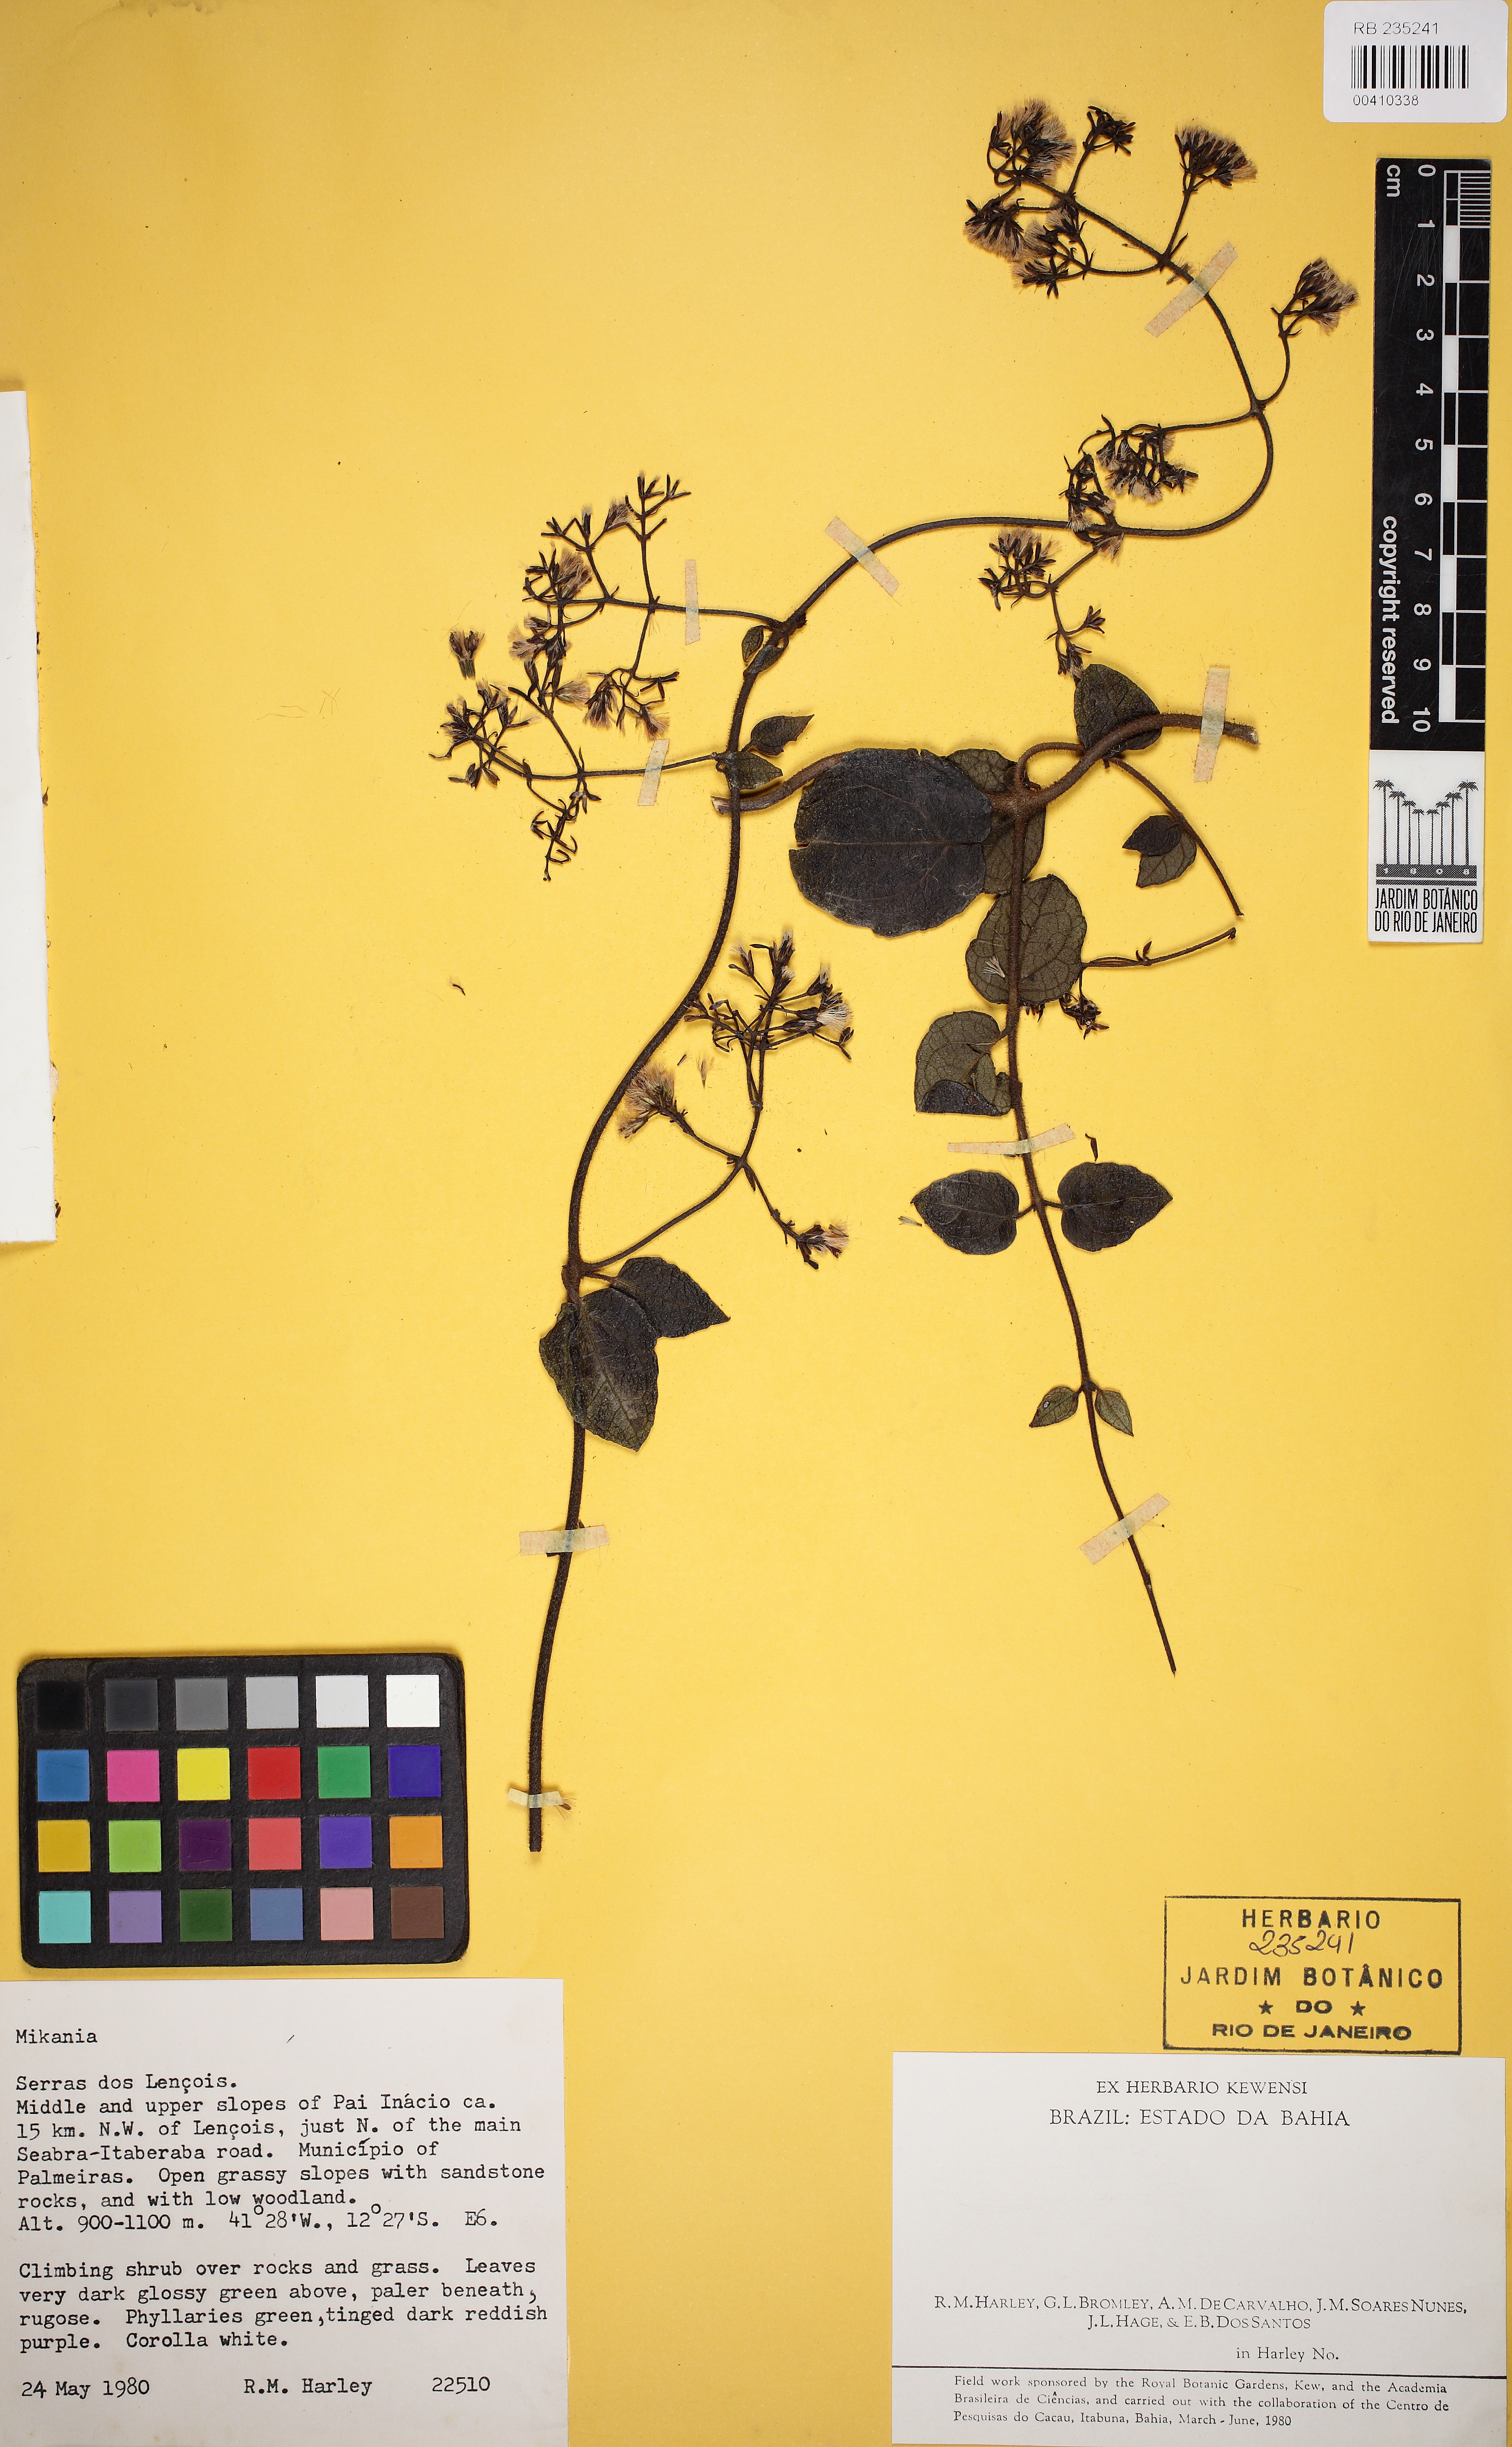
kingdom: Plantae
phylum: Tracheophyta
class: Magnoliopsida
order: Asterales
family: Asteraceae
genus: Mikania
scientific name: Mikania phaeoclados
